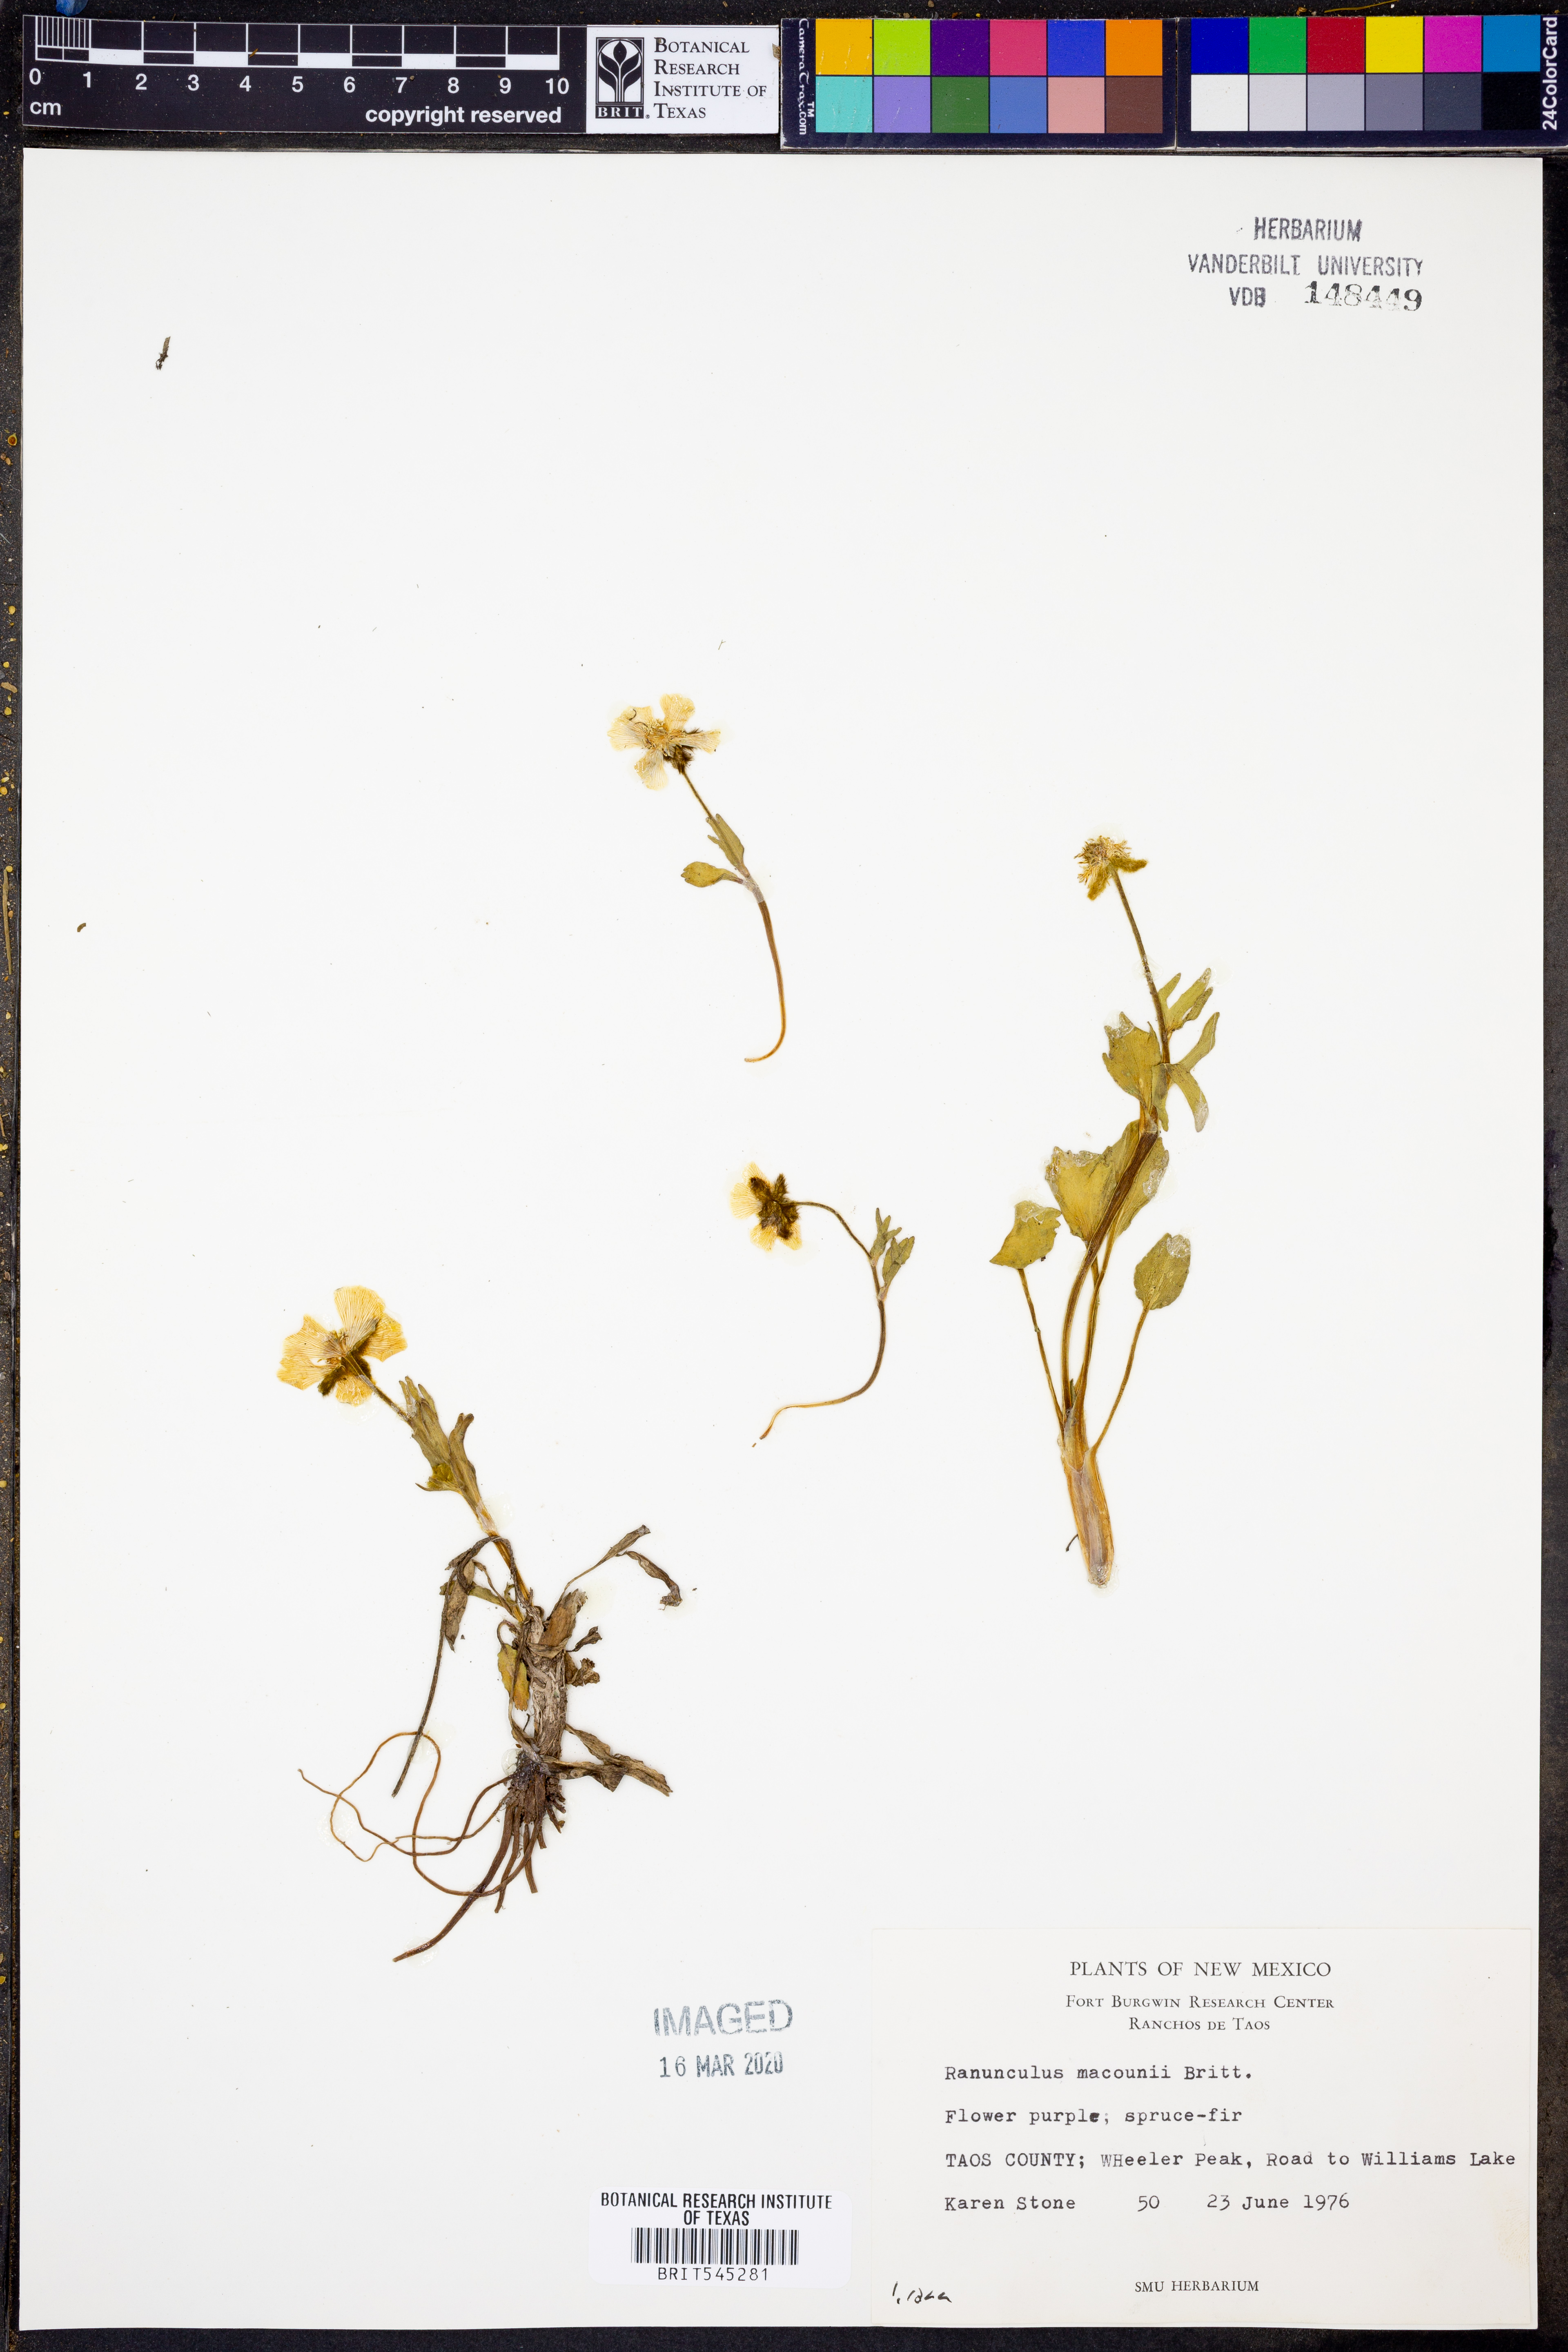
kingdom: Plantae
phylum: Tracheophyta
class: Magnoliopsida
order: Ranunculales
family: Ranunculaceae
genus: Ranunculus
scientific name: Ranunculus macounii
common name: Macoun's buttercup
